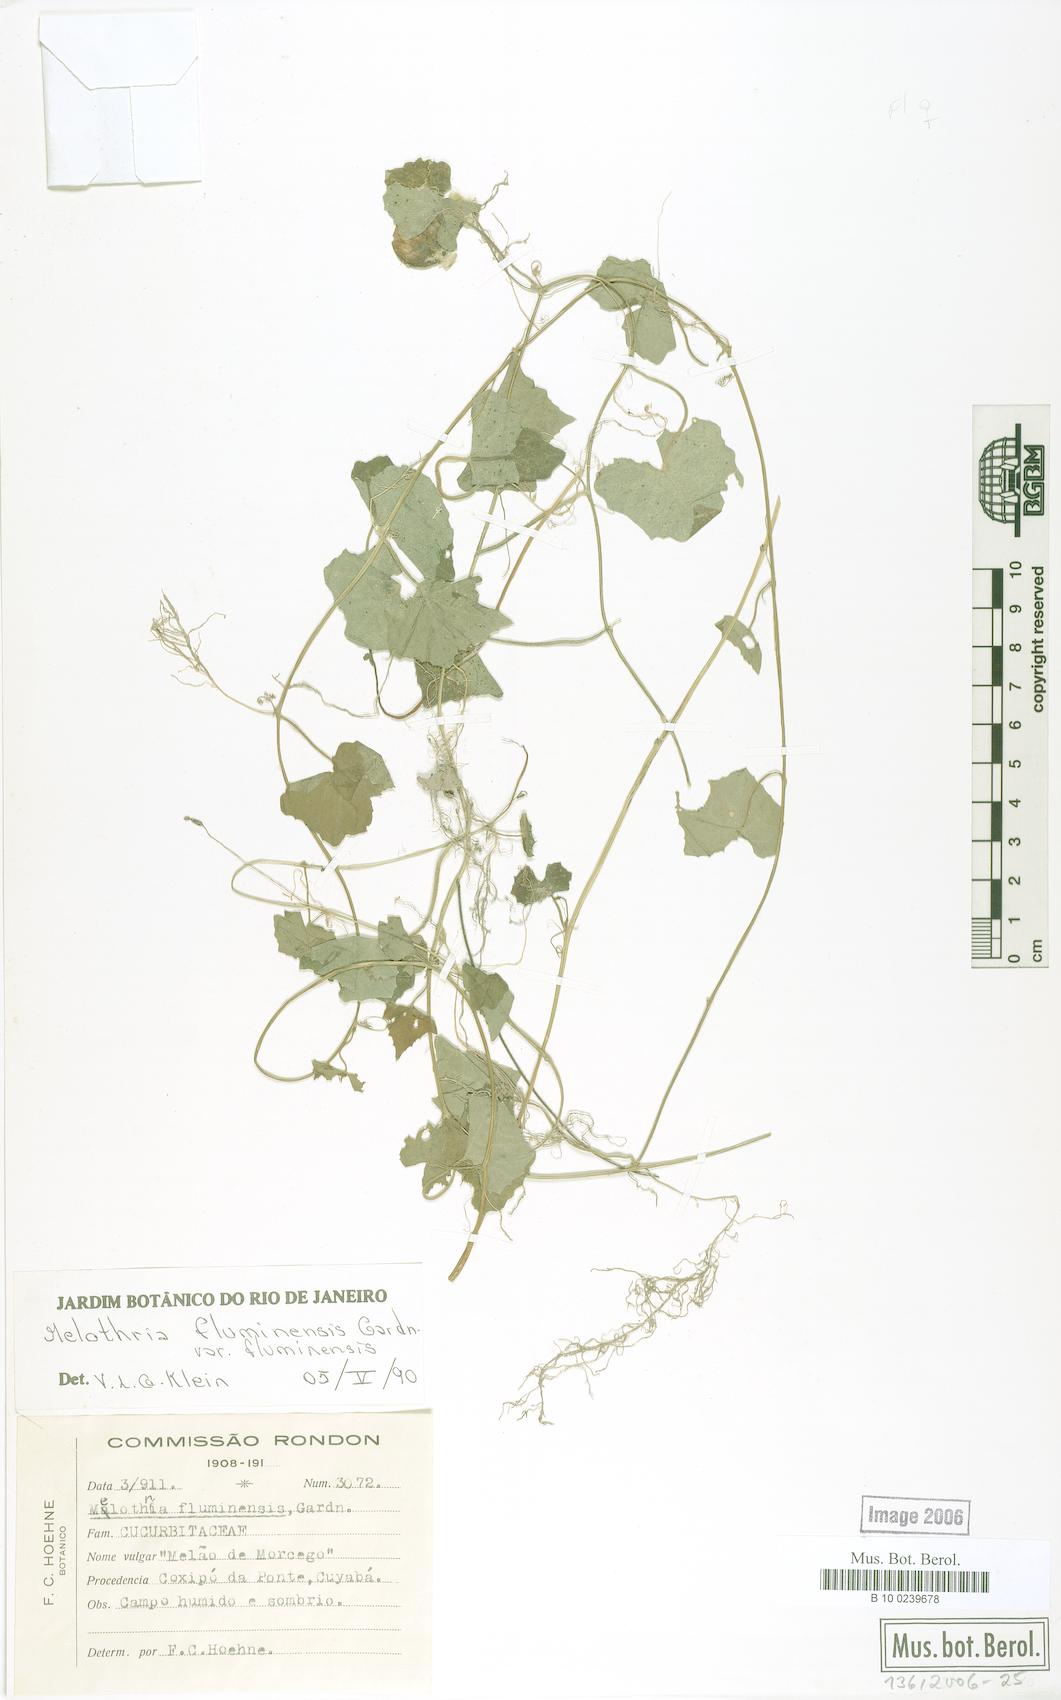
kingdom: Plantae
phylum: Tracheophyta
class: Magnoliopsida
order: Cucurbitales
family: Cucurbitaceae
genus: Melothria
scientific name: Melothria fluminensis
